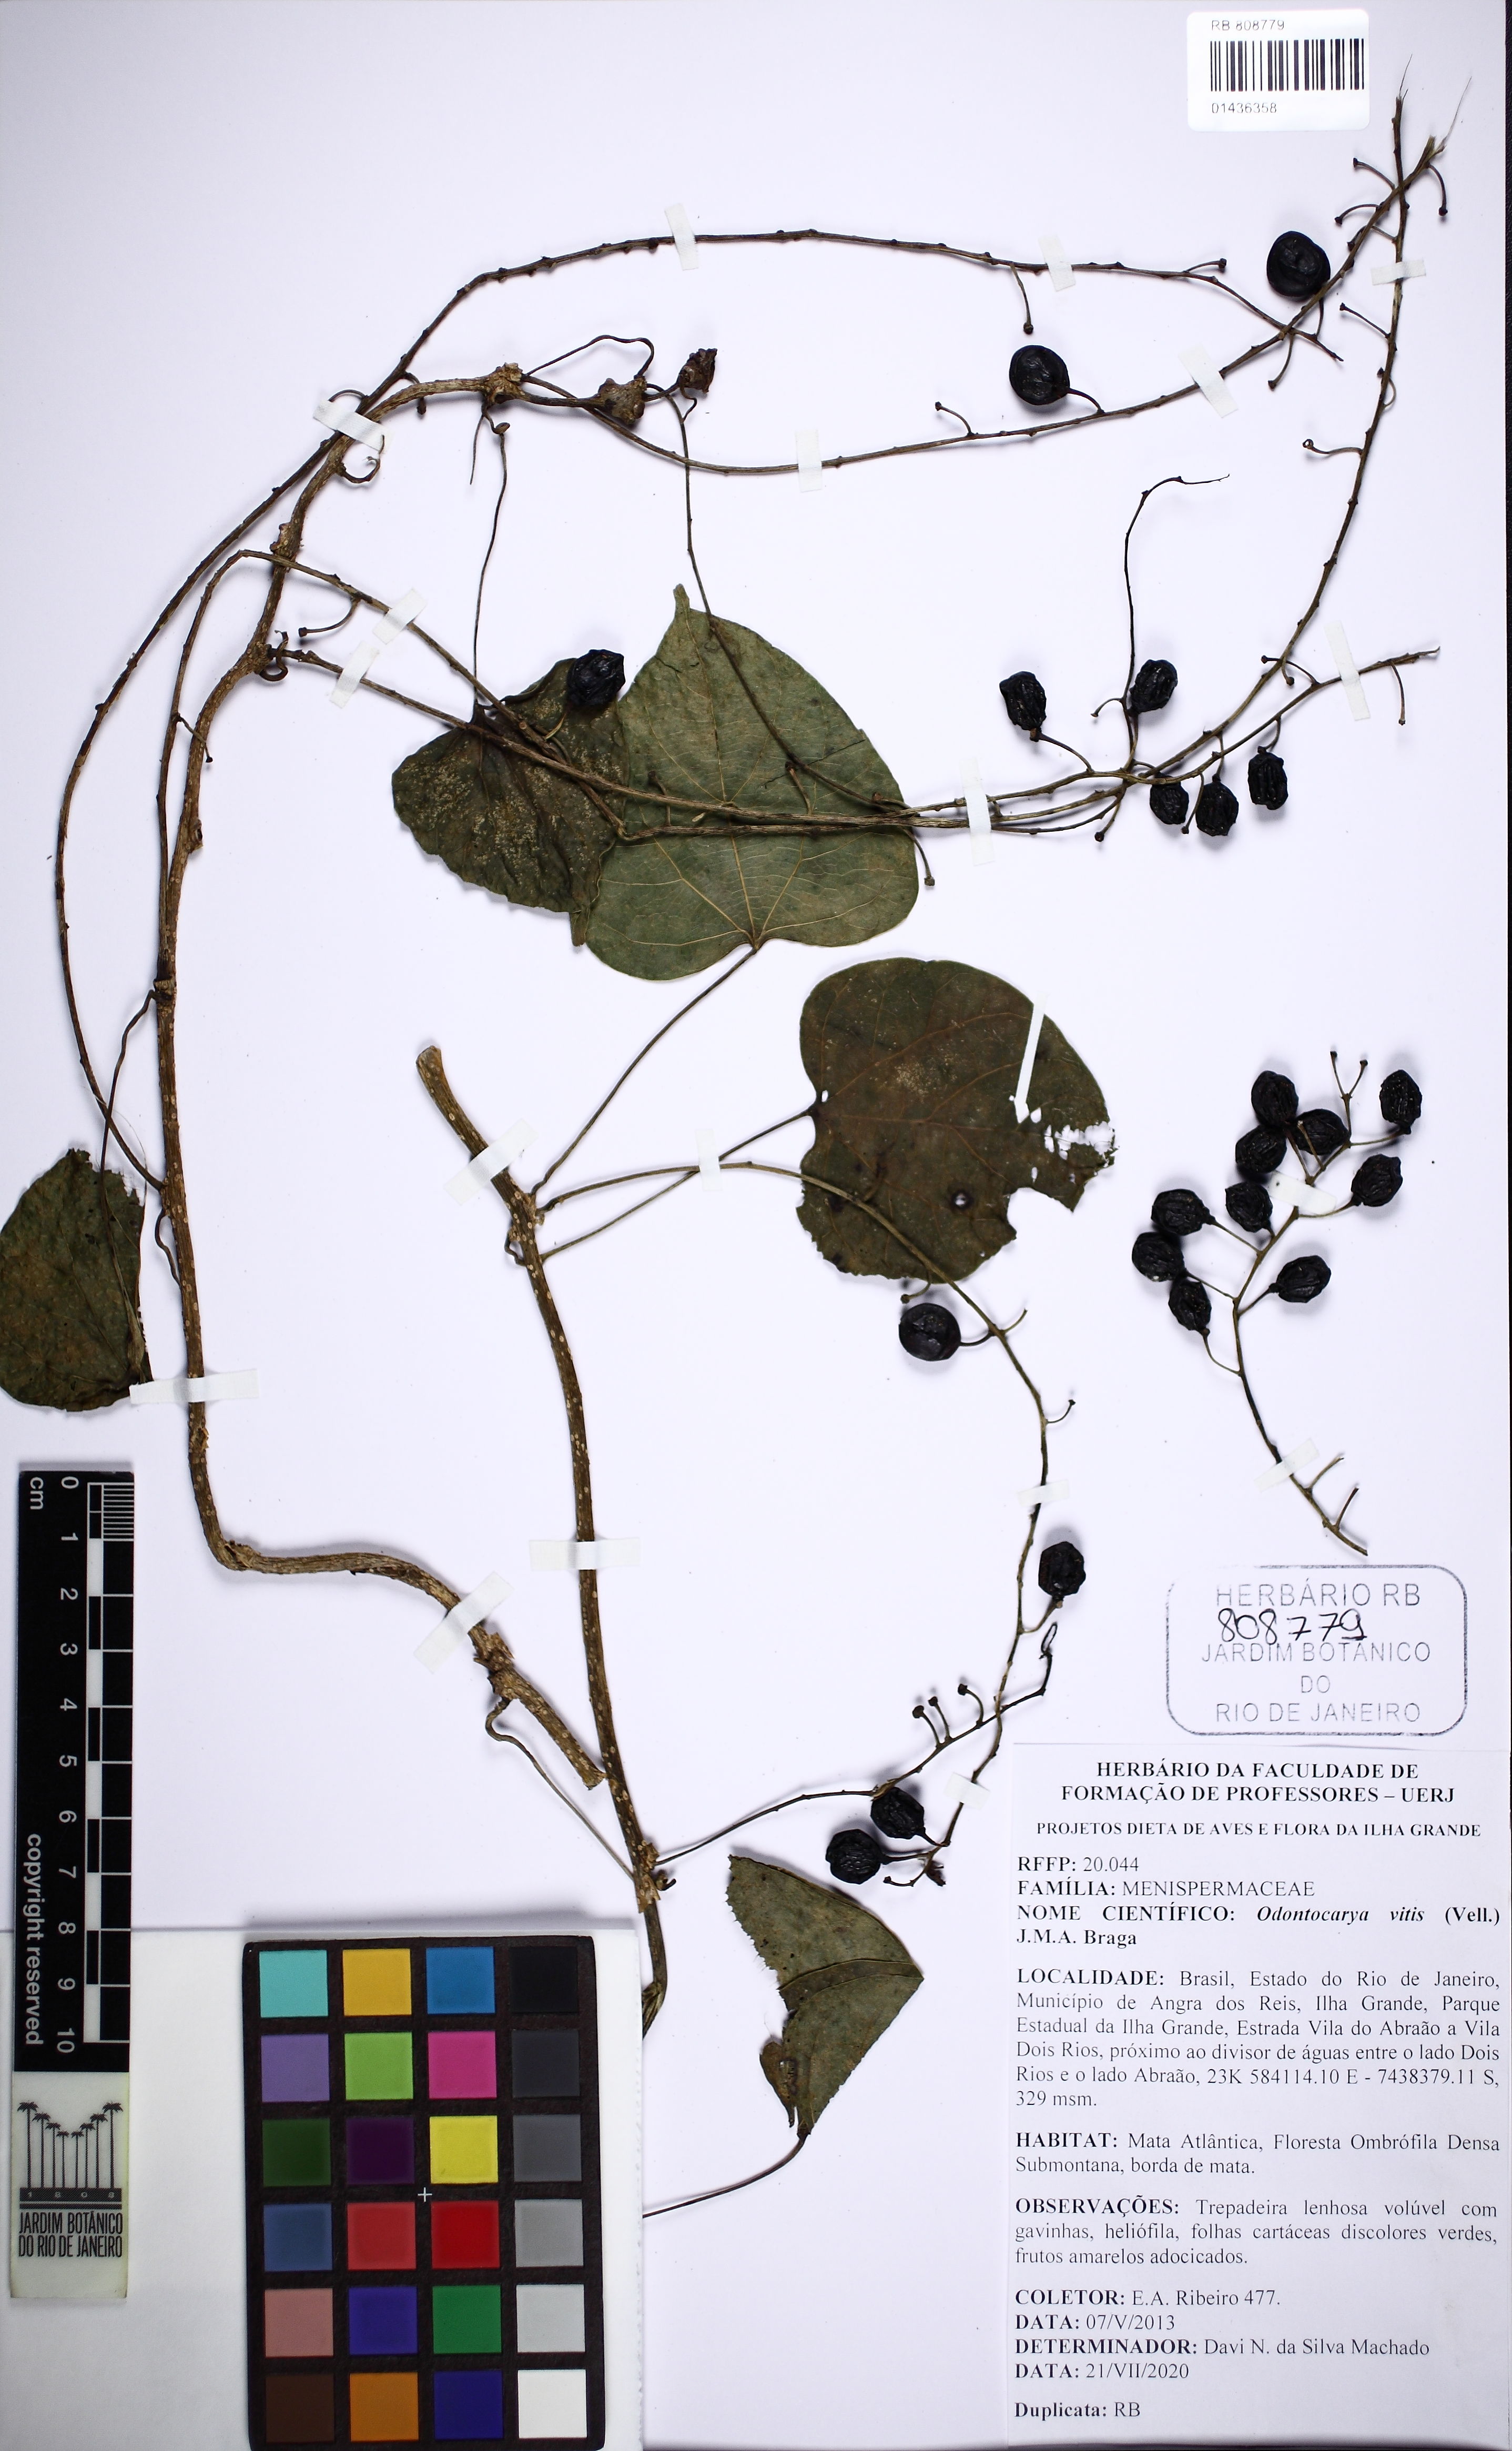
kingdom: Plantae
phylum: Tracheophyta
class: Magnoliopsida
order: Ranunculales
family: Menispermaceae
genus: Odontocarya
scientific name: Odontocarya vitis
